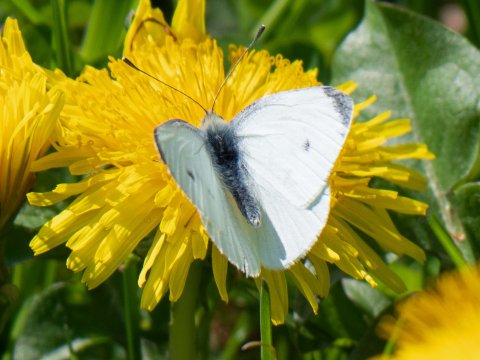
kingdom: Animalia
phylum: Arthropoda
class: Insecta
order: Lepidoptera
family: Pieridae
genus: Pieris
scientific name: Pieris rapae
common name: Cabbage White
